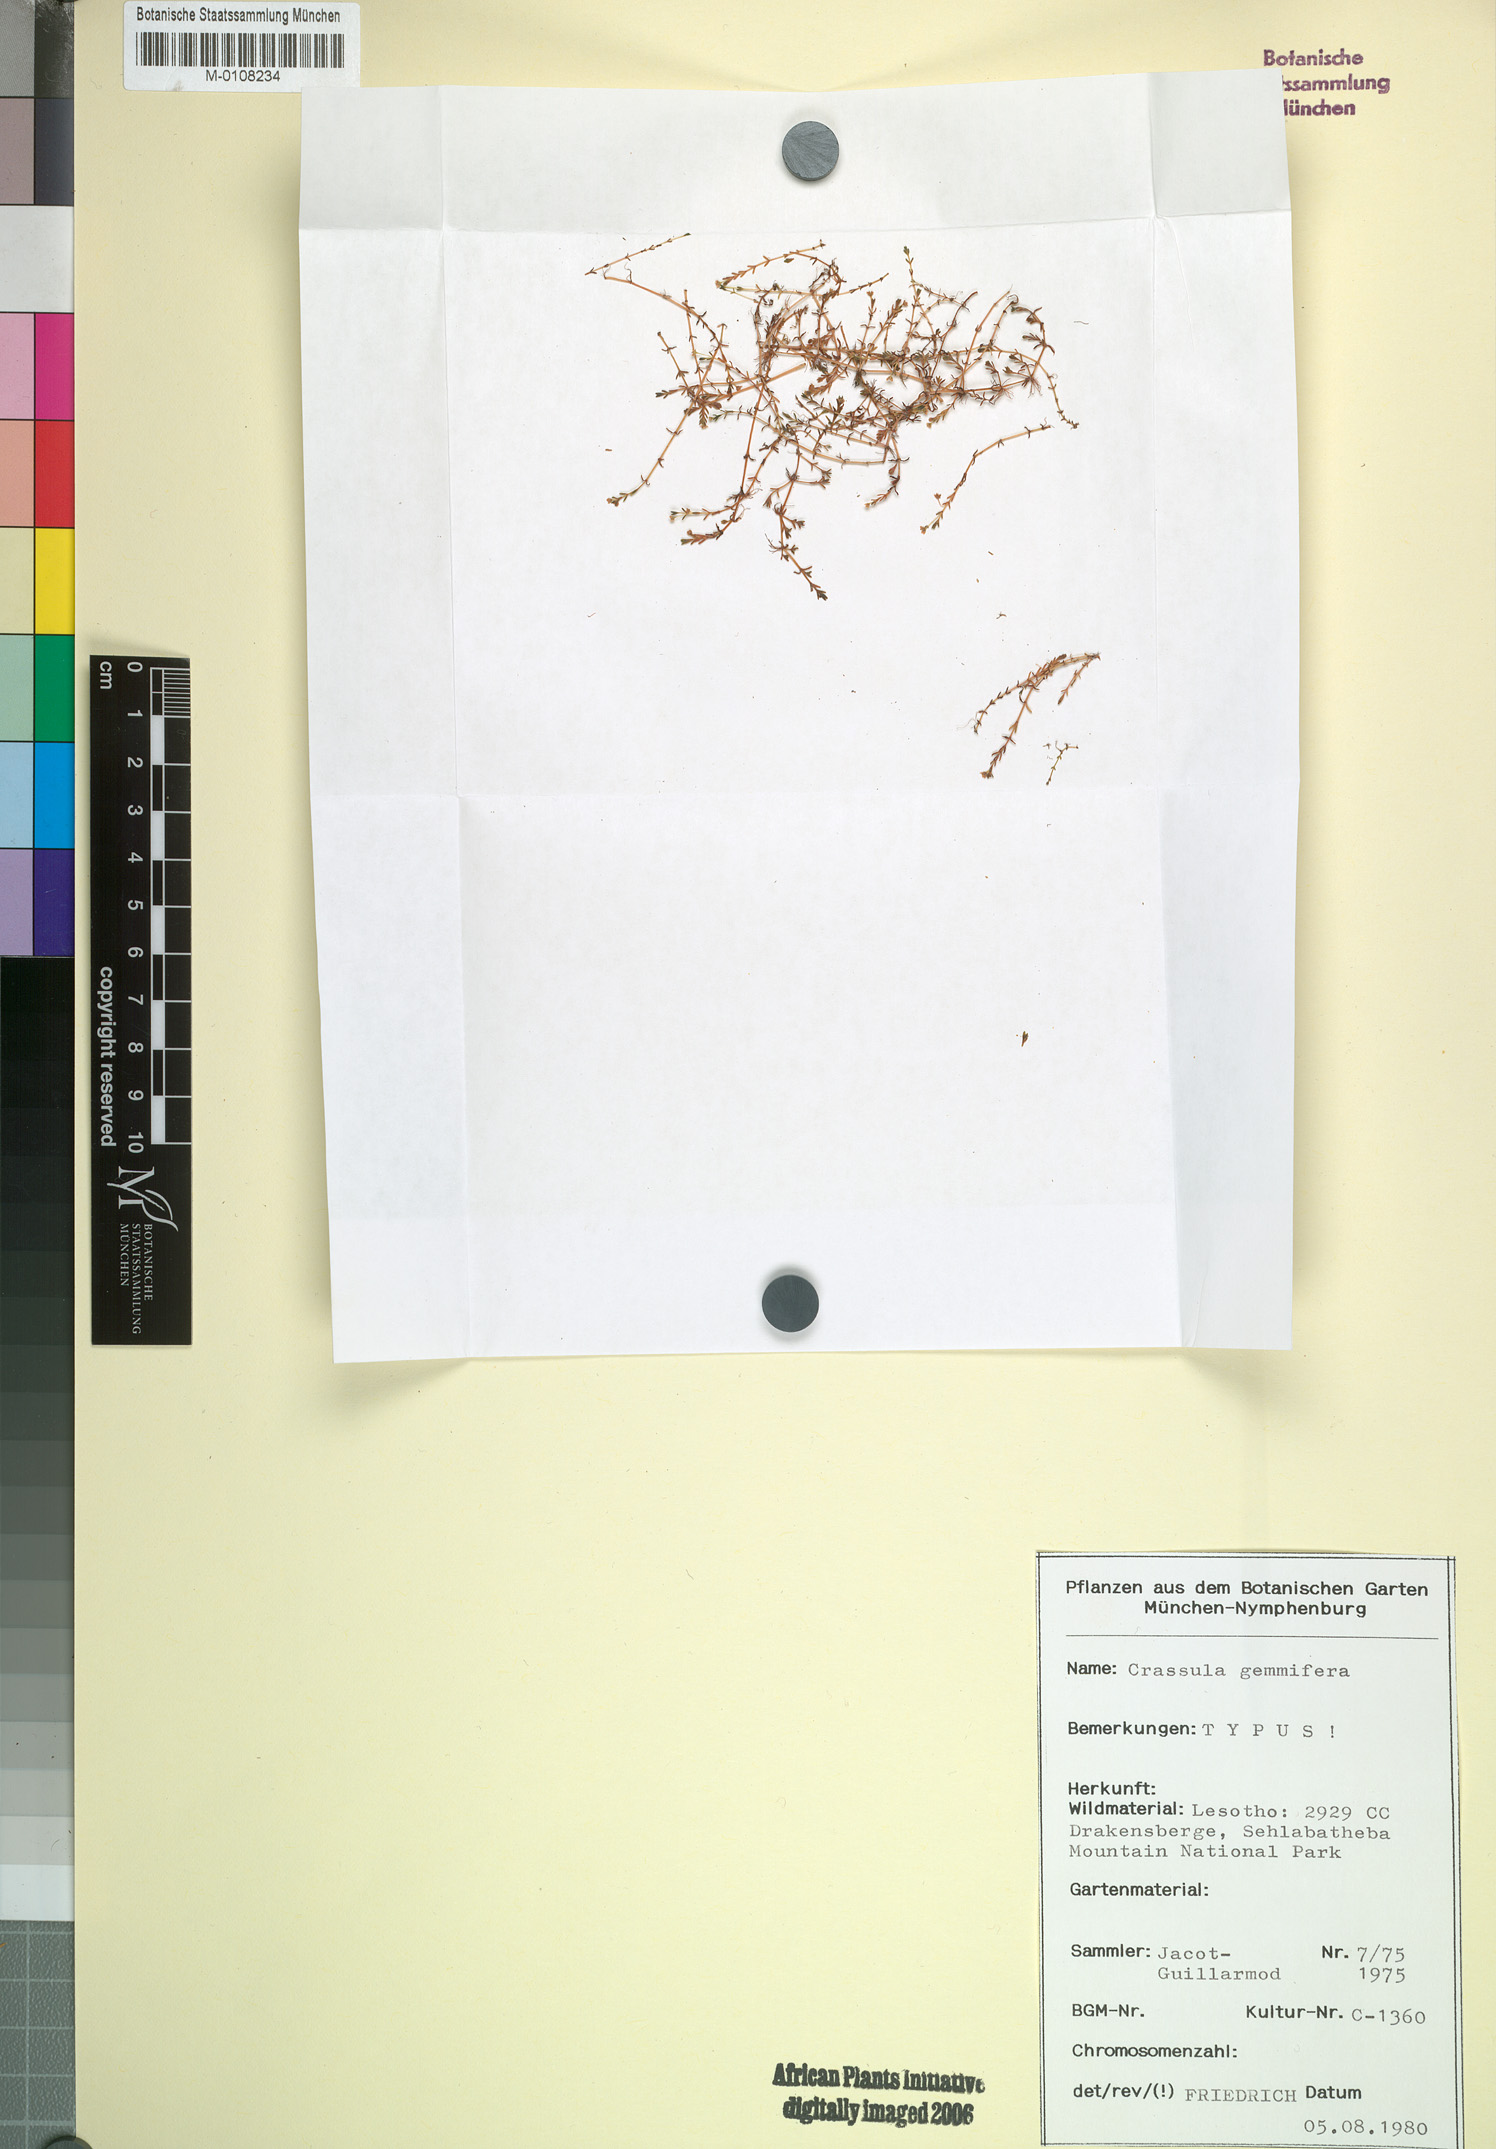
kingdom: Plantae
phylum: Tracheophyta
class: Magnoliopsida
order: Saxifragales
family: Crassulaceae
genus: Crassula
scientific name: Crassula gemmifera
